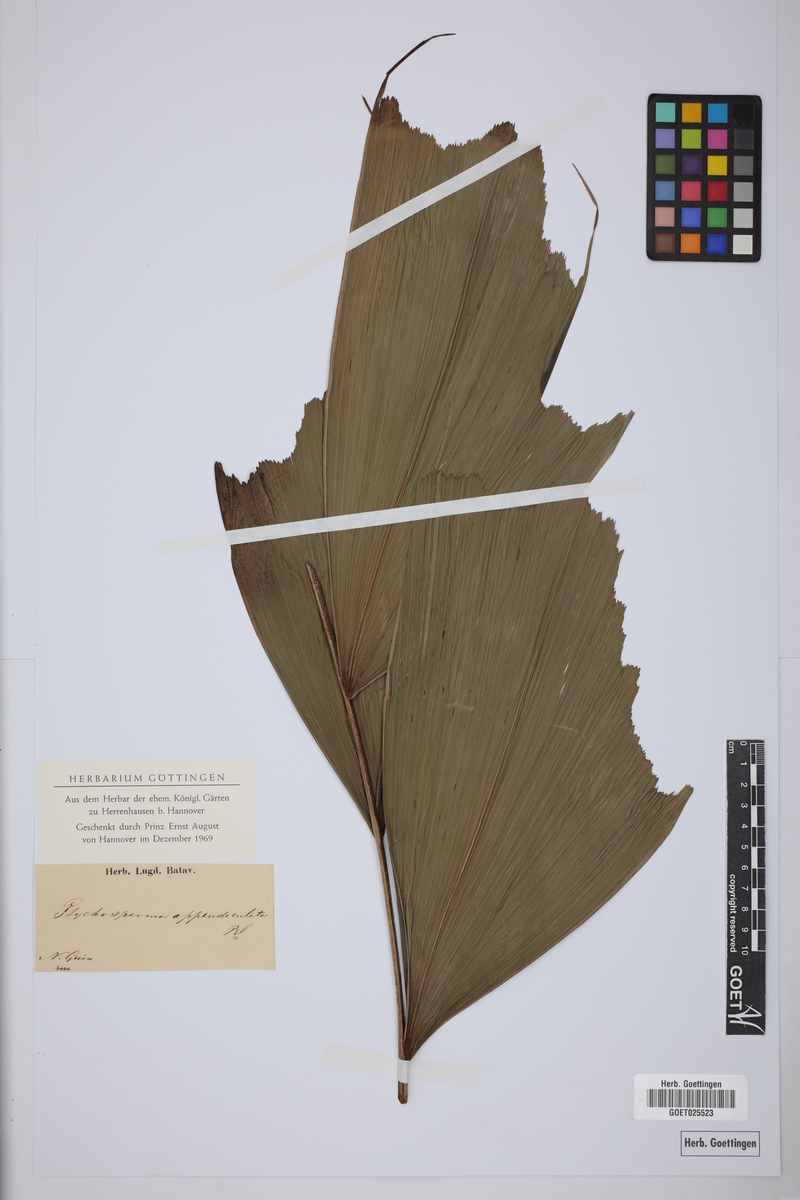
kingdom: Plantae
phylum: Tracheophyta
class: Liliopsida
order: Arecales
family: Arecaceae
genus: Drymophloeus
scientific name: Drymophloeus oliviformis
